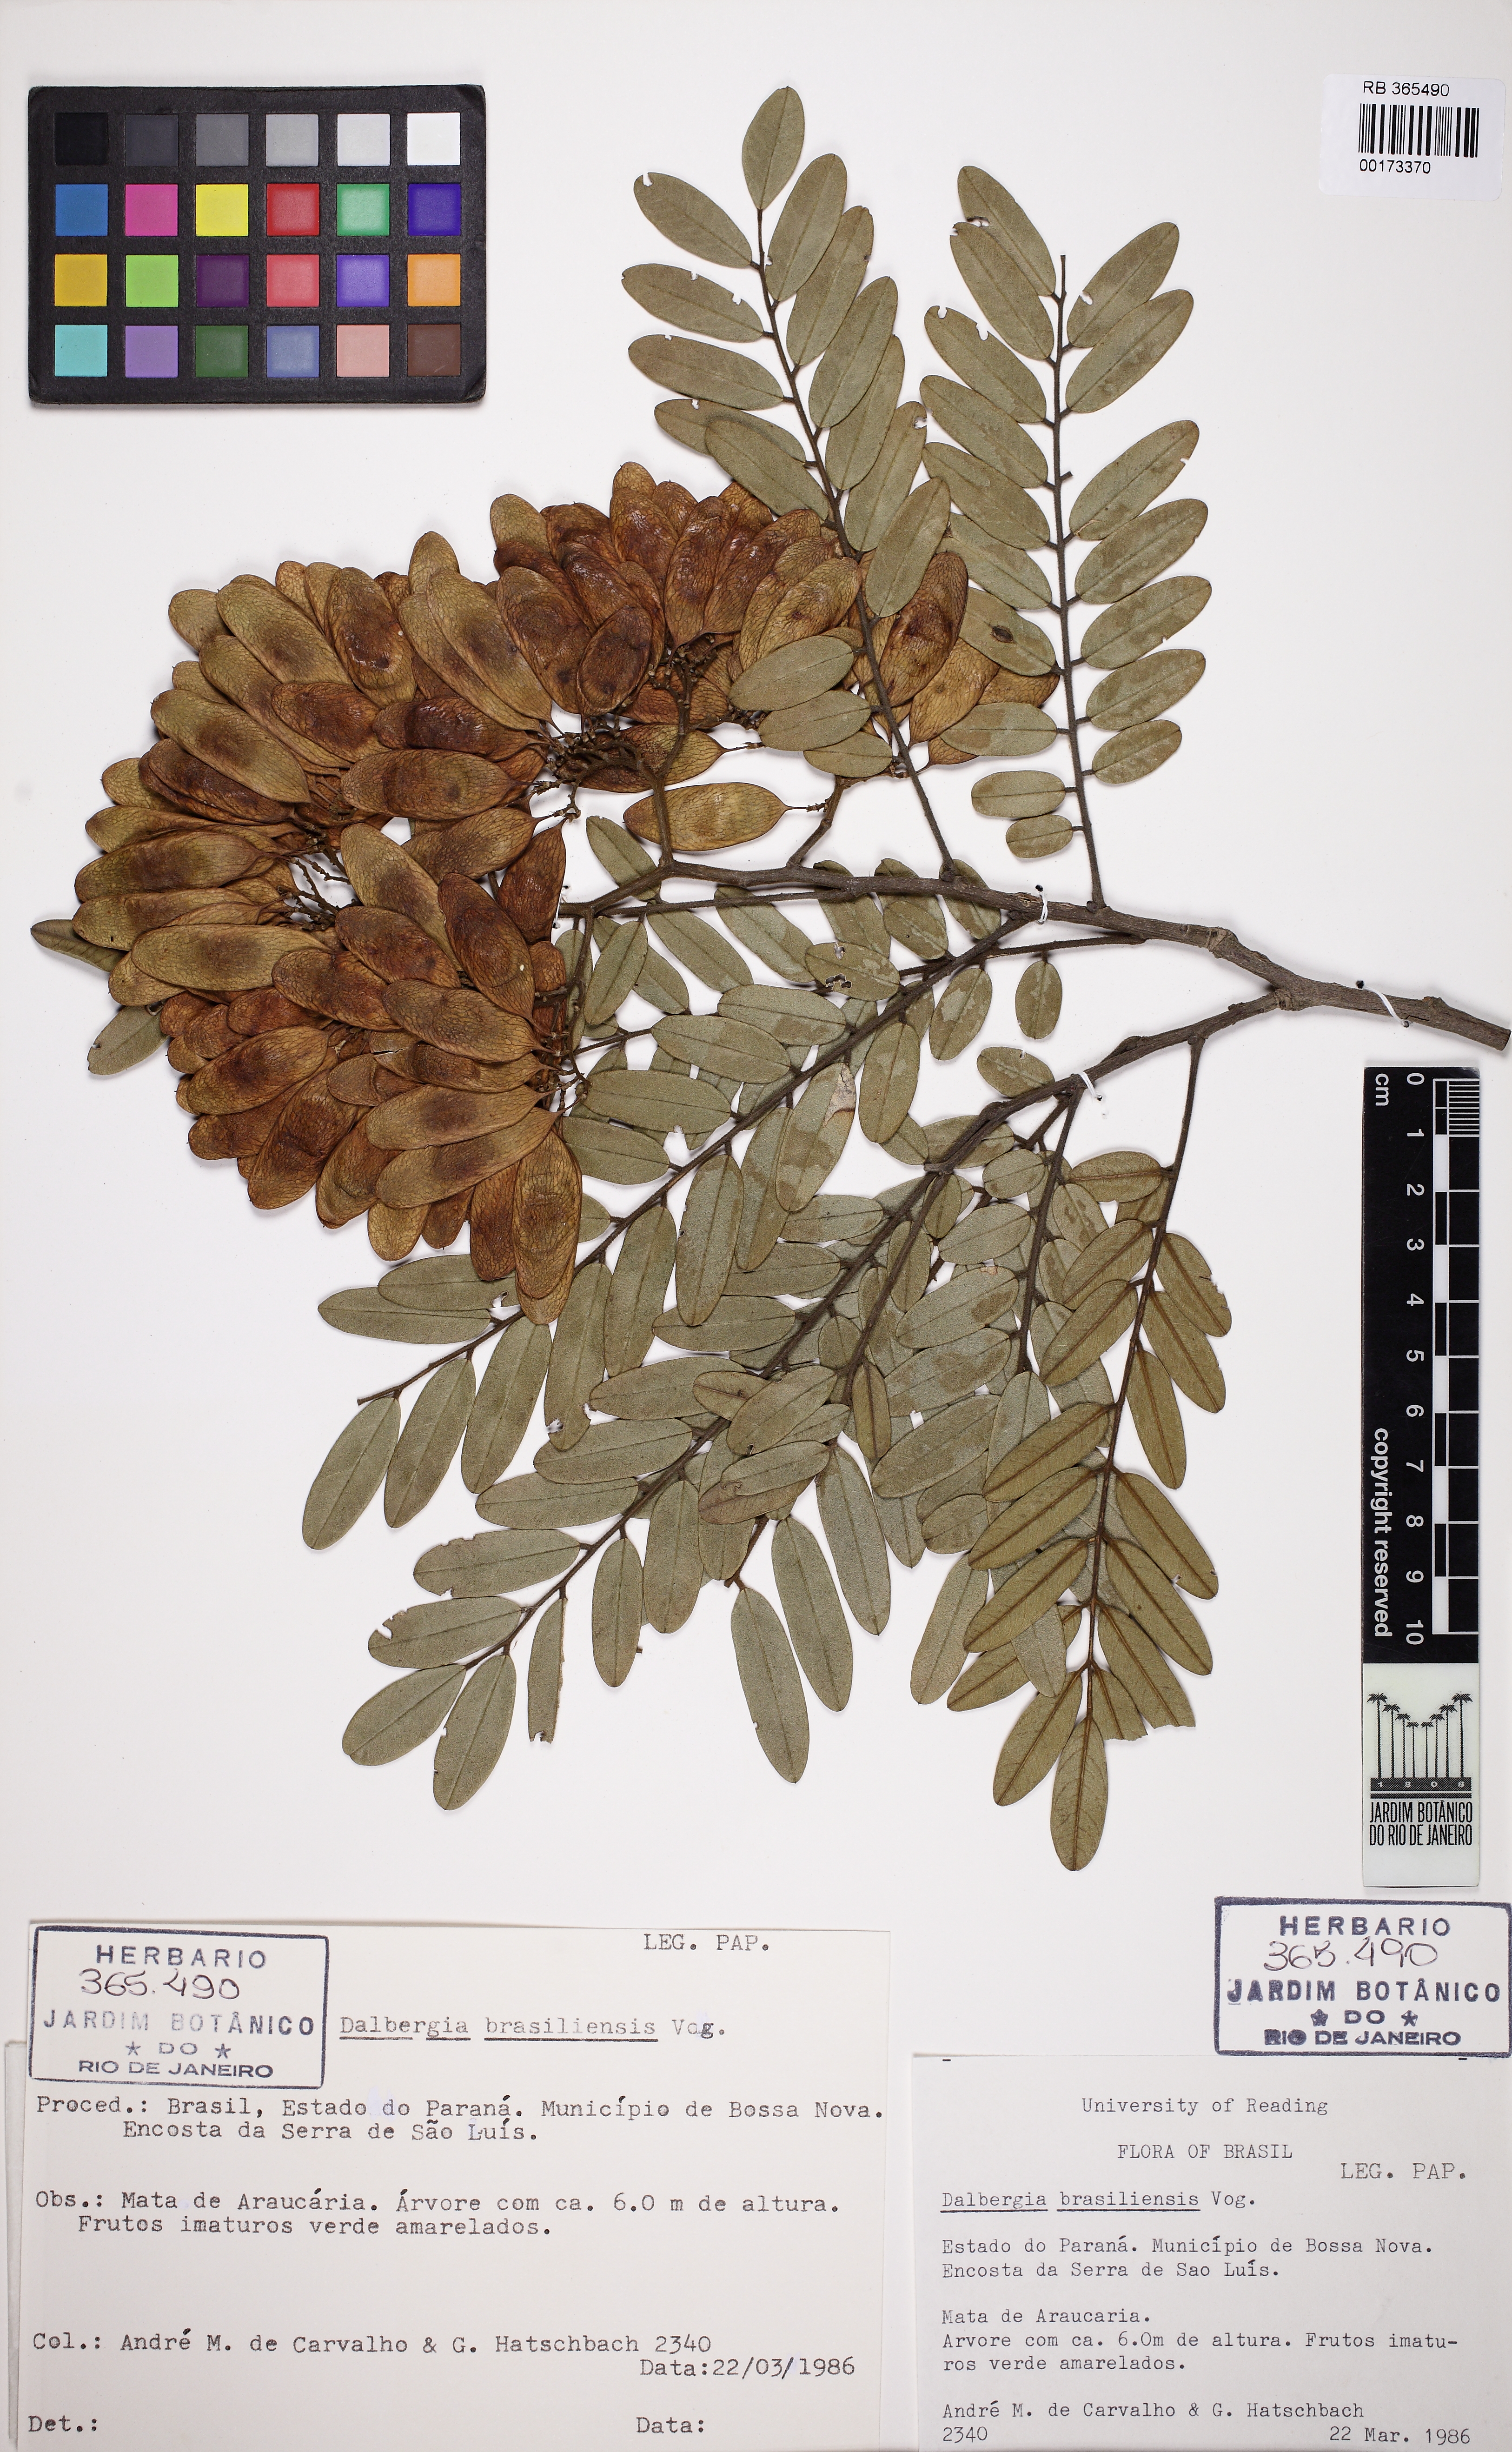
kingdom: Plantae
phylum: Tracheophyta
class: Magnoliopsida
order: Fabales
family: Fabaceae
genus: Dalbergia
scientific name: Dalbergia brasiliensis
